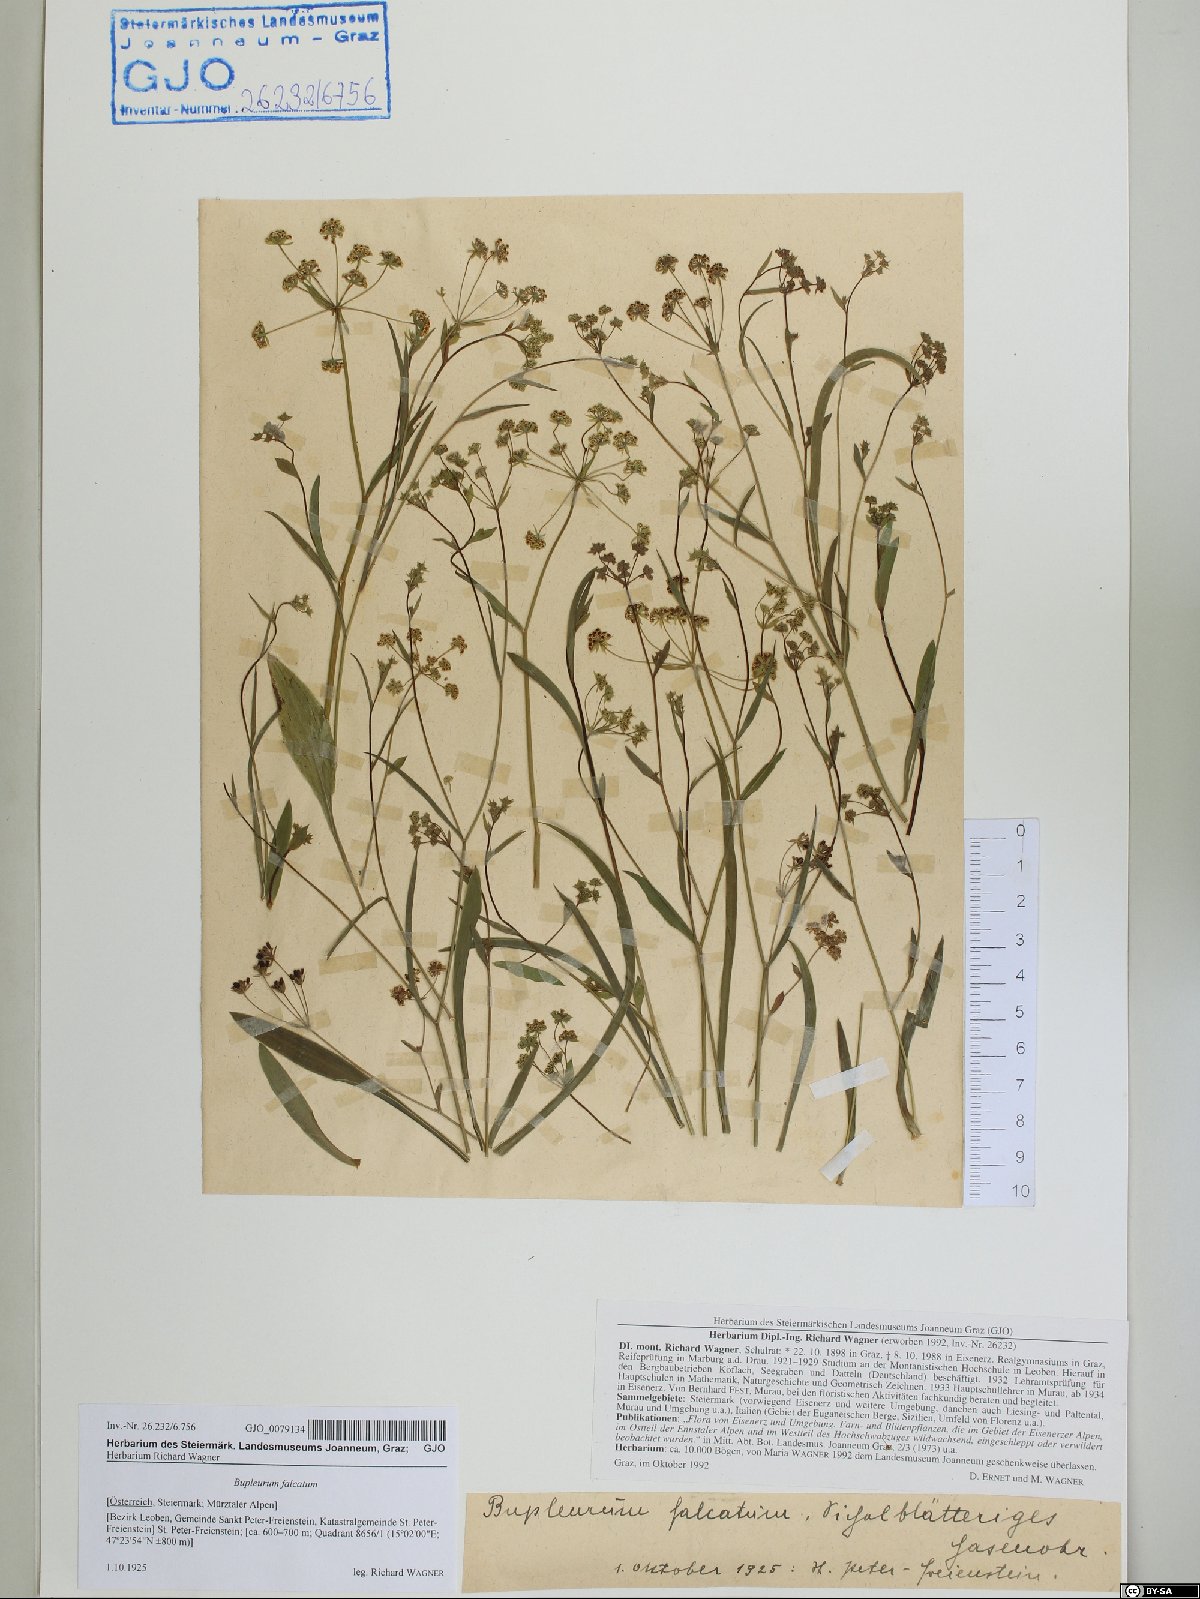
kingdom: Plantae
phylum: Tracheophyta
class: Magnoliopsida
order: Apiales
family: Apiaceae
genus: Bupleurum
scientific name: Bupleurum falcatum
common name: Sickle-leaved hare's-ear
